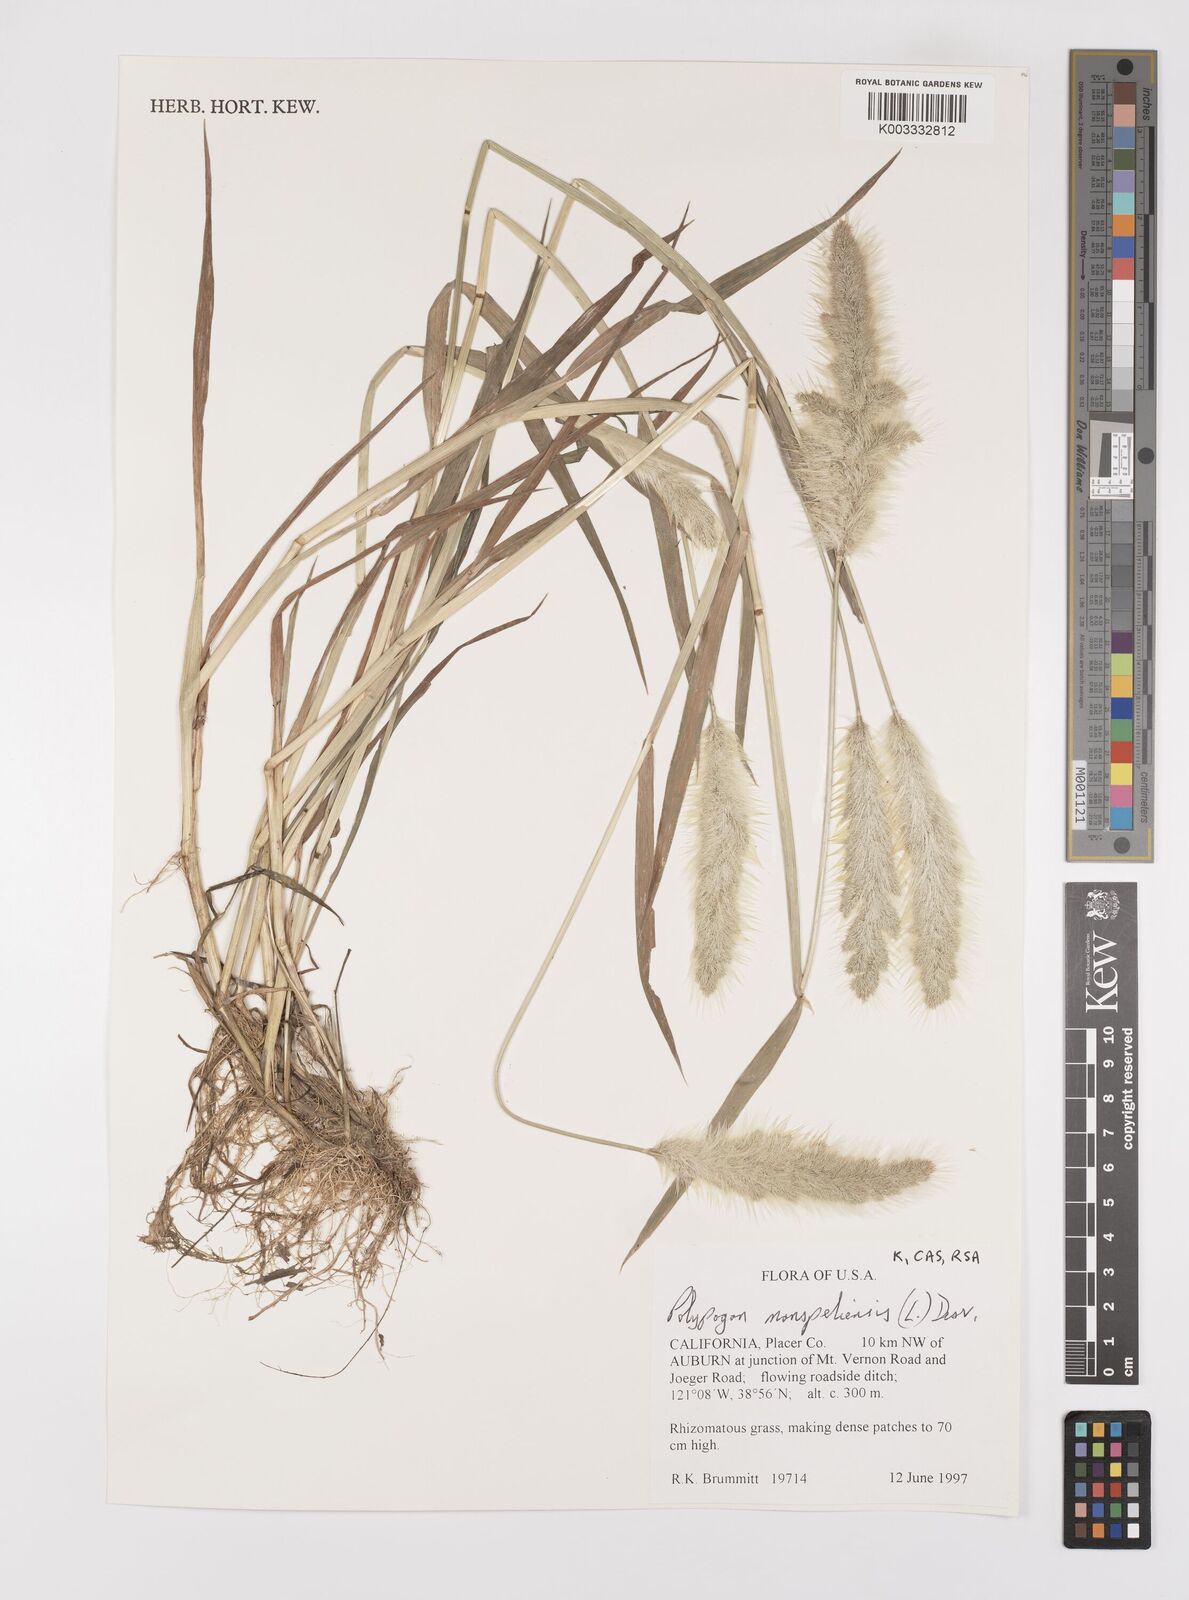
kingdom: Plantae
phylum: Tracheophyta
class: Liliopsida
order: Poales
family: Poaceae
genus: Polypogon
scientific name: Polypogon monspeliensis
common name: Annual rabbitsfoot grass
